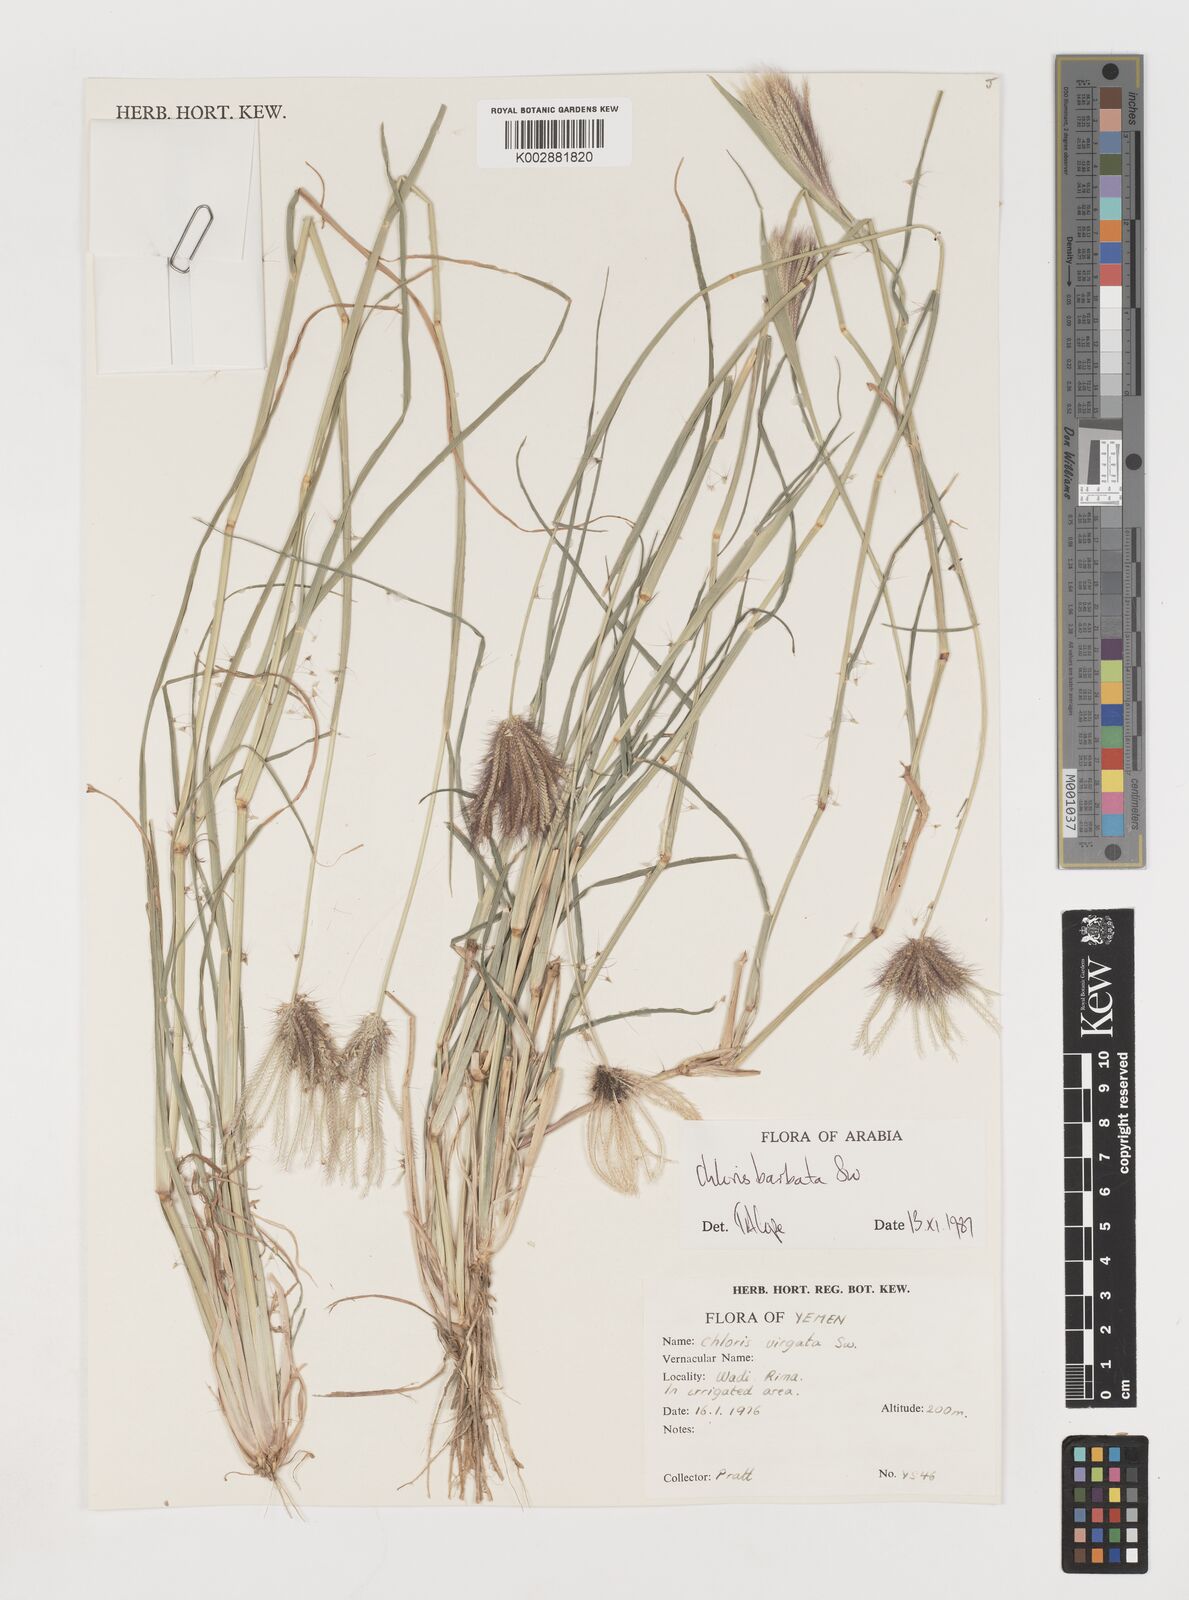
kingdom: Plantae
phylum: Tracheophyta
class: Liliopsida
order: Poales
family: Poaceae
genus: Chloris
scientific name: Chloris barbata
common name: Swollen fingergrass
